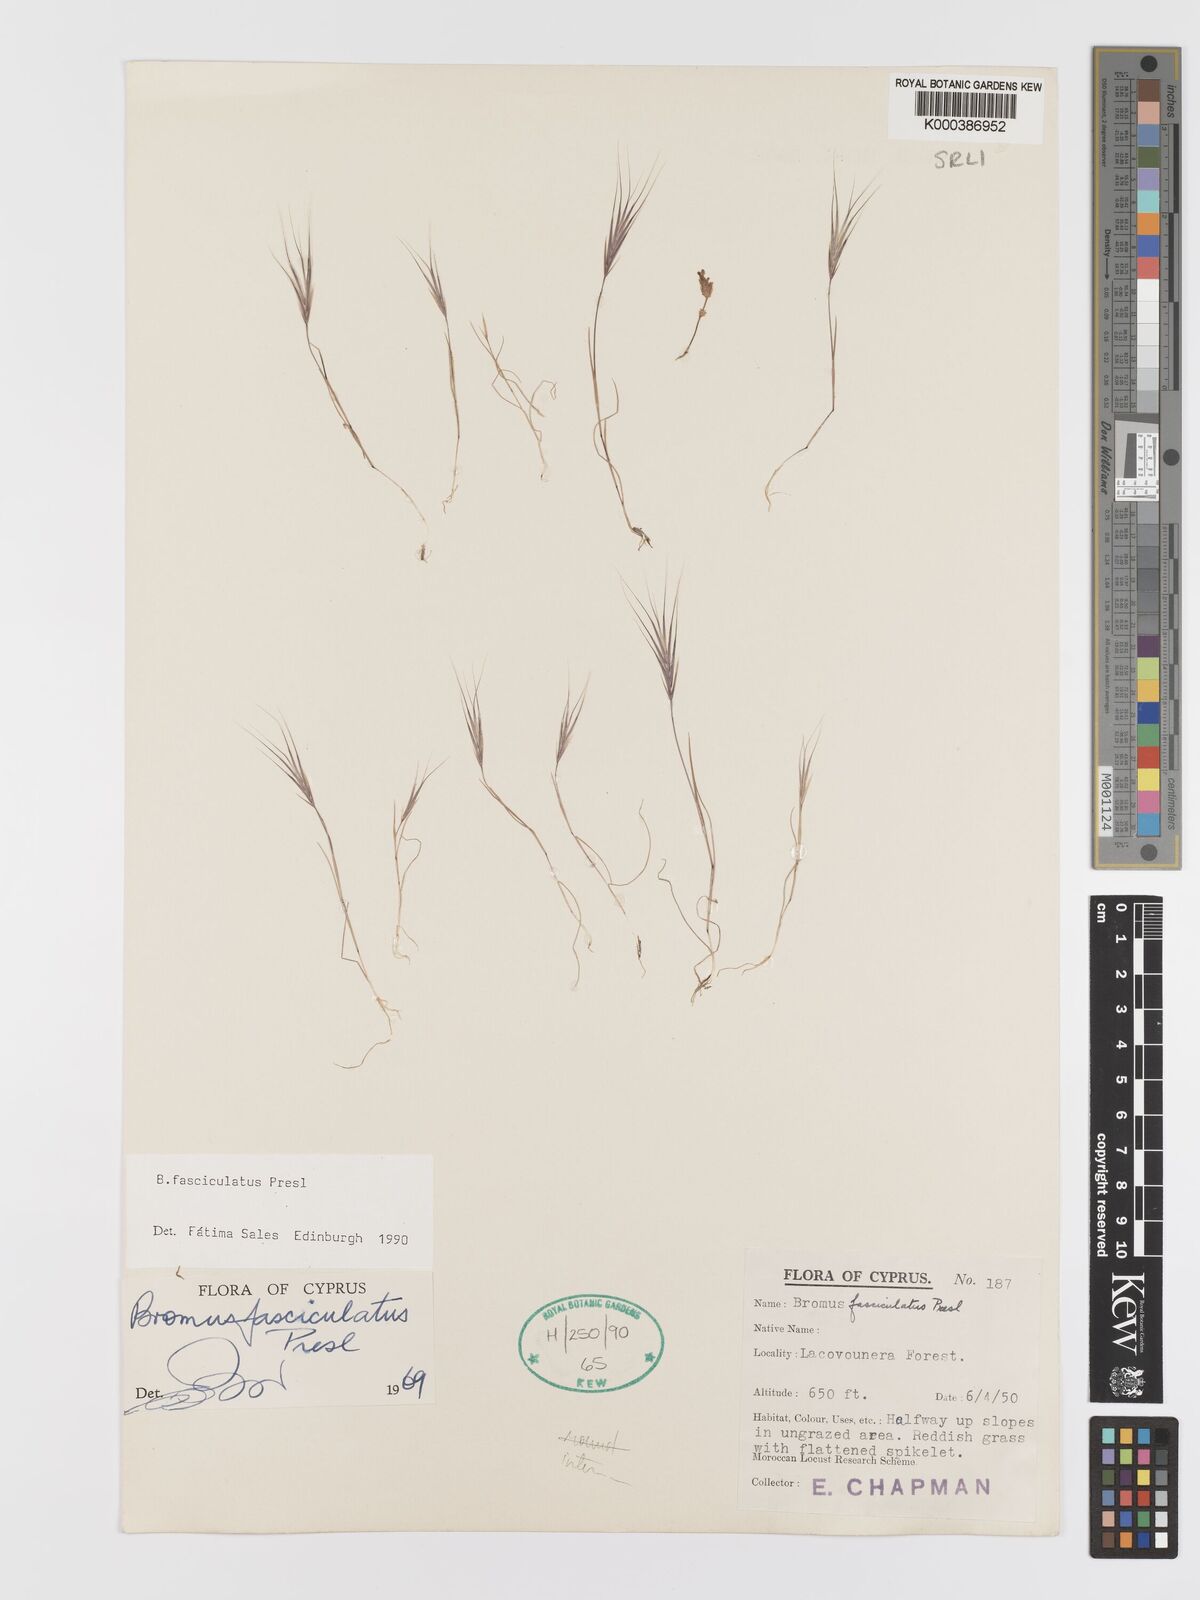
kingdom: Plantae
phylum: Tracheophyta
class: Liliopsida
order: Poales
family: Poaceae
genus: Bromus
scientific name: Bromus fasciculatus
